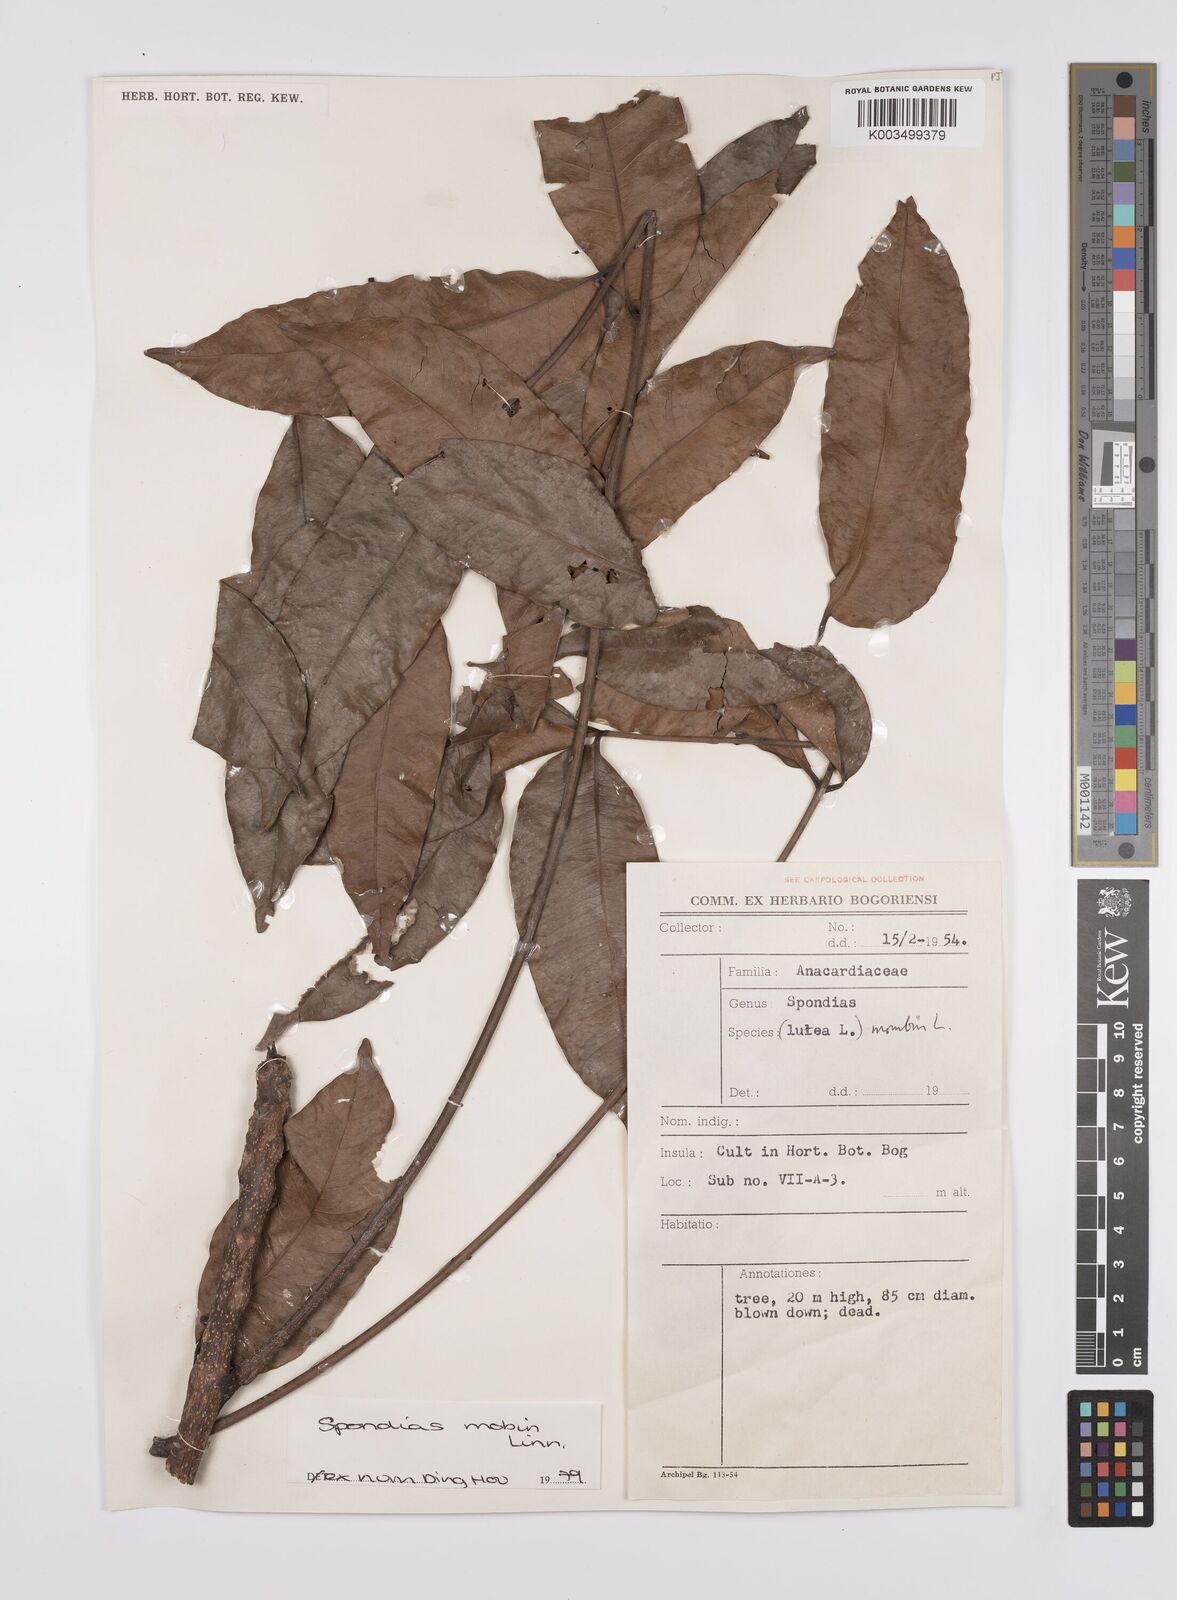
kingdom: Plantae
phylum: Tracheophyta
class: Magnoliopsida
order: Sapindales
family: Anacardiaceae
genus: Spondias
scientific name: Spondias mombin
